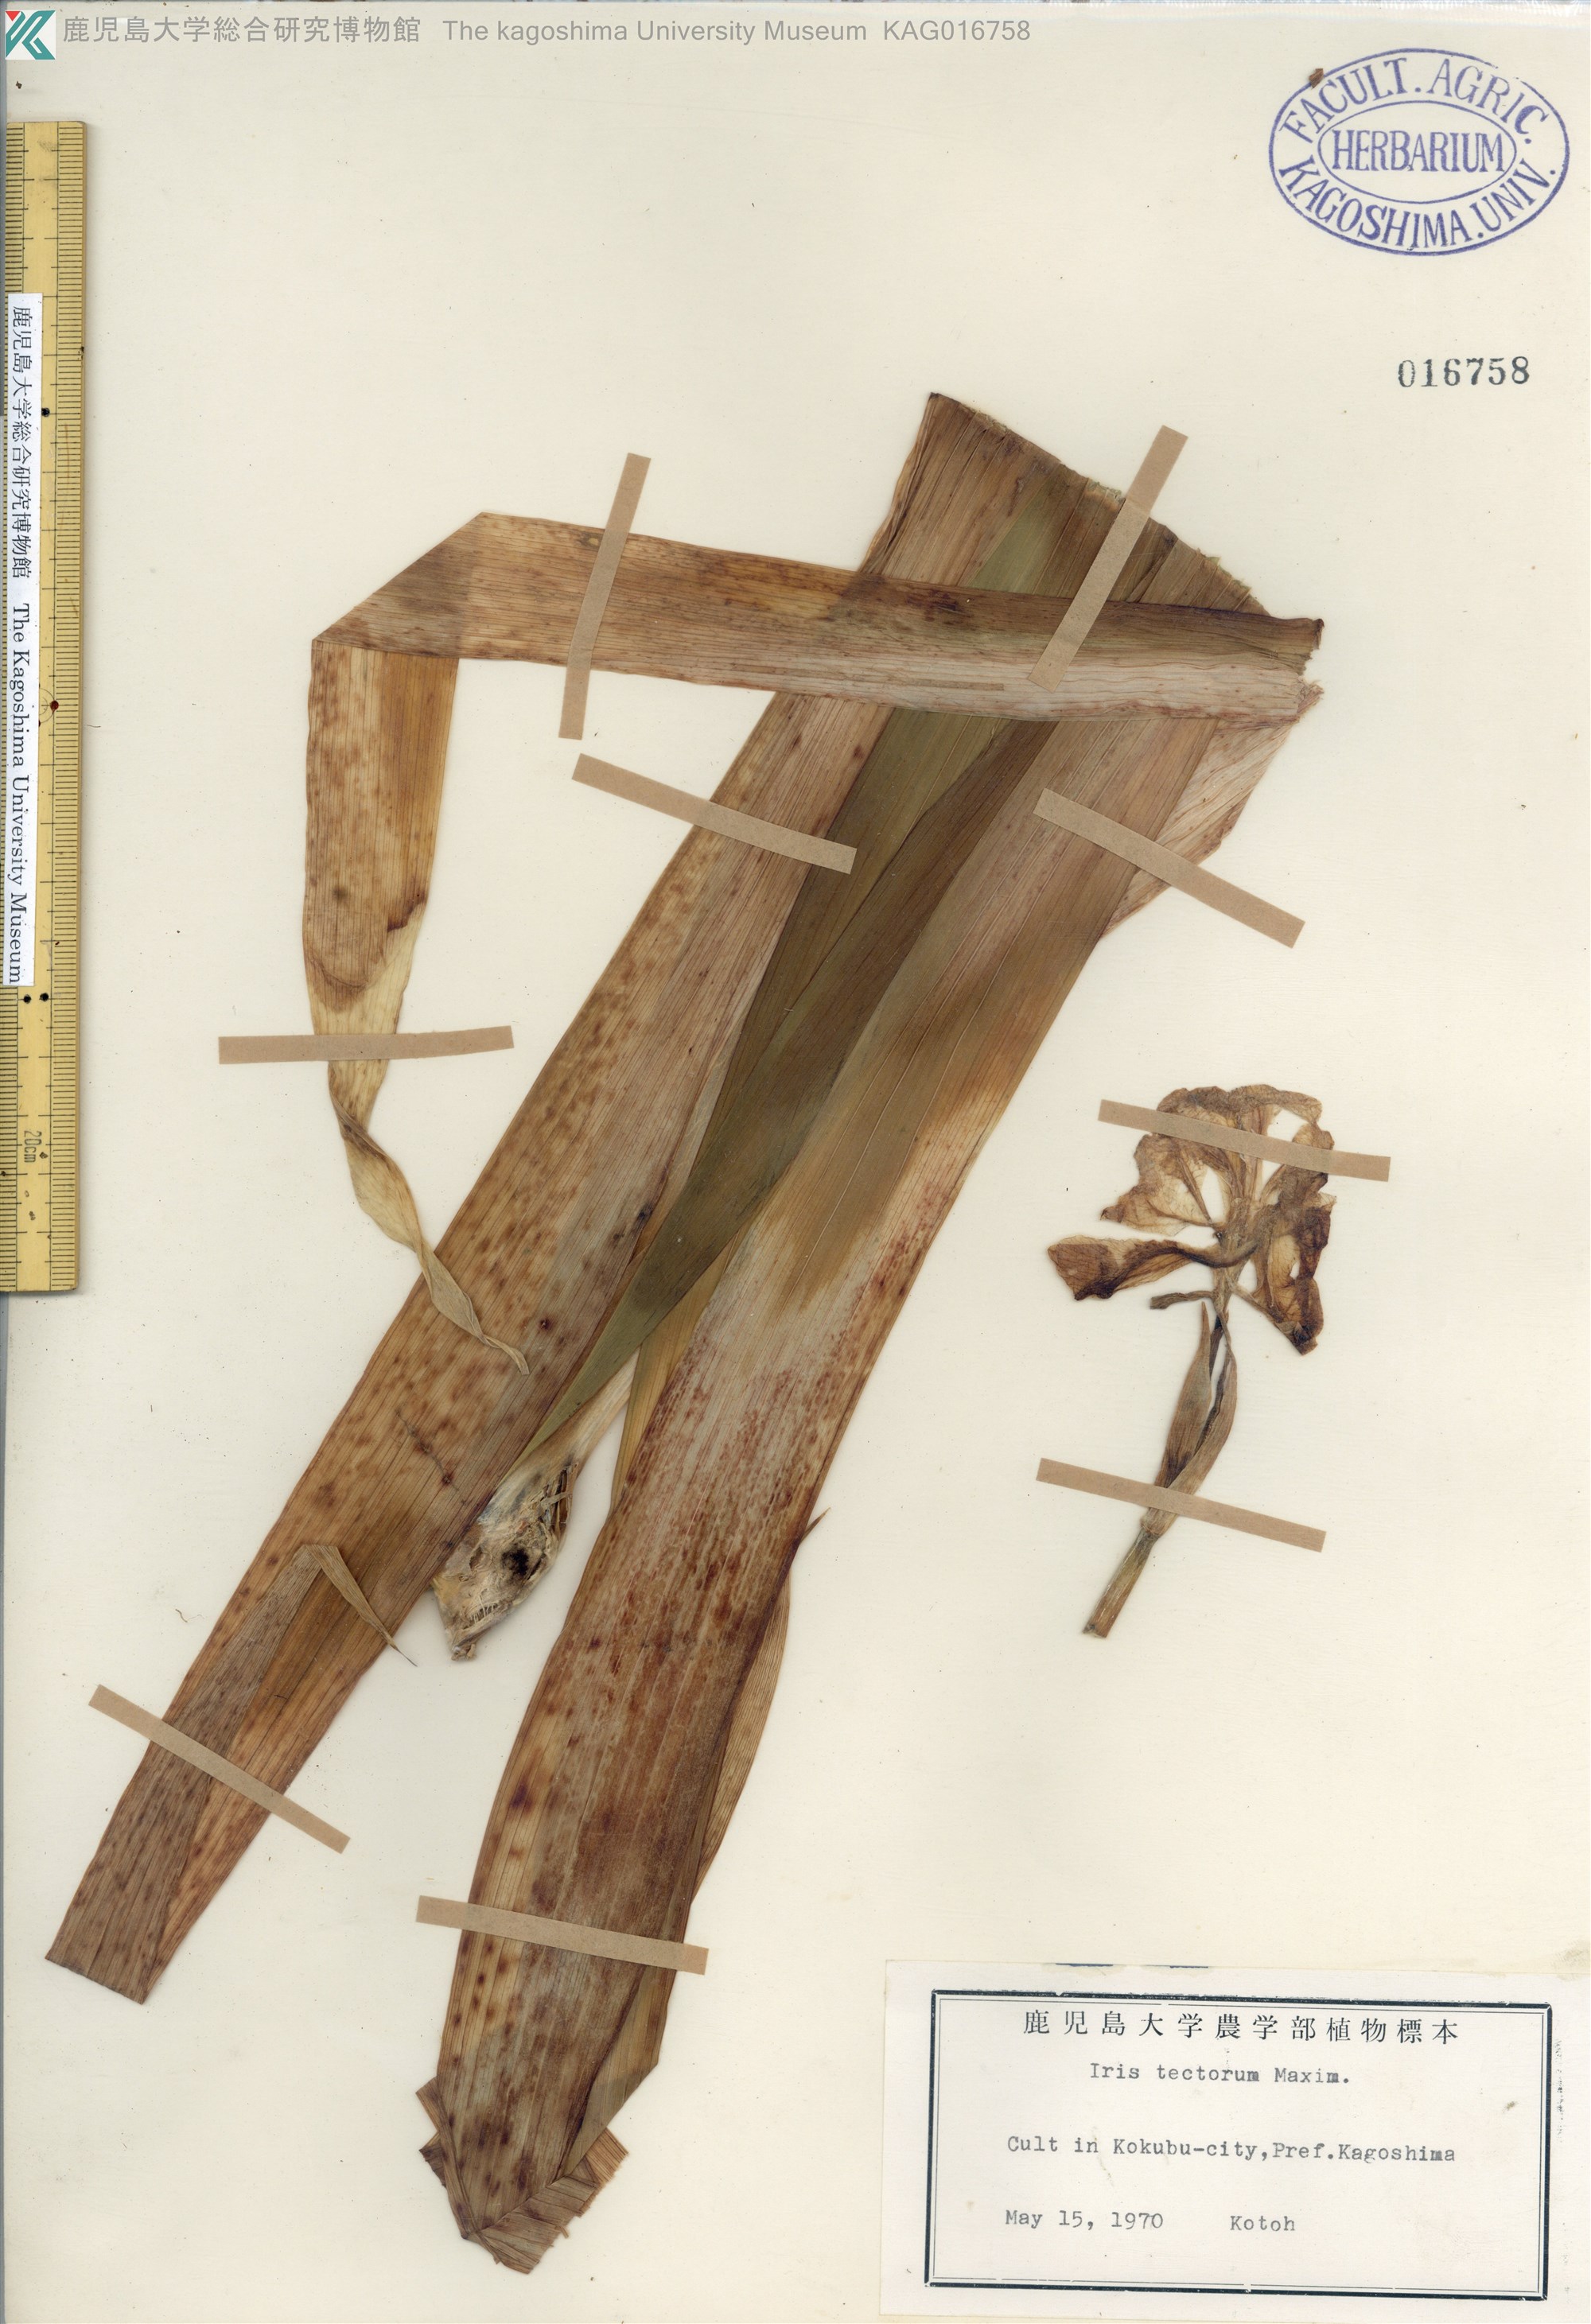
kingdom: Plantae
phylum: Tracheophyta
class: Liliopsida
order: Asparagales
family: Iridaceae
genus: Iris
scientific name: Iris tectorum
